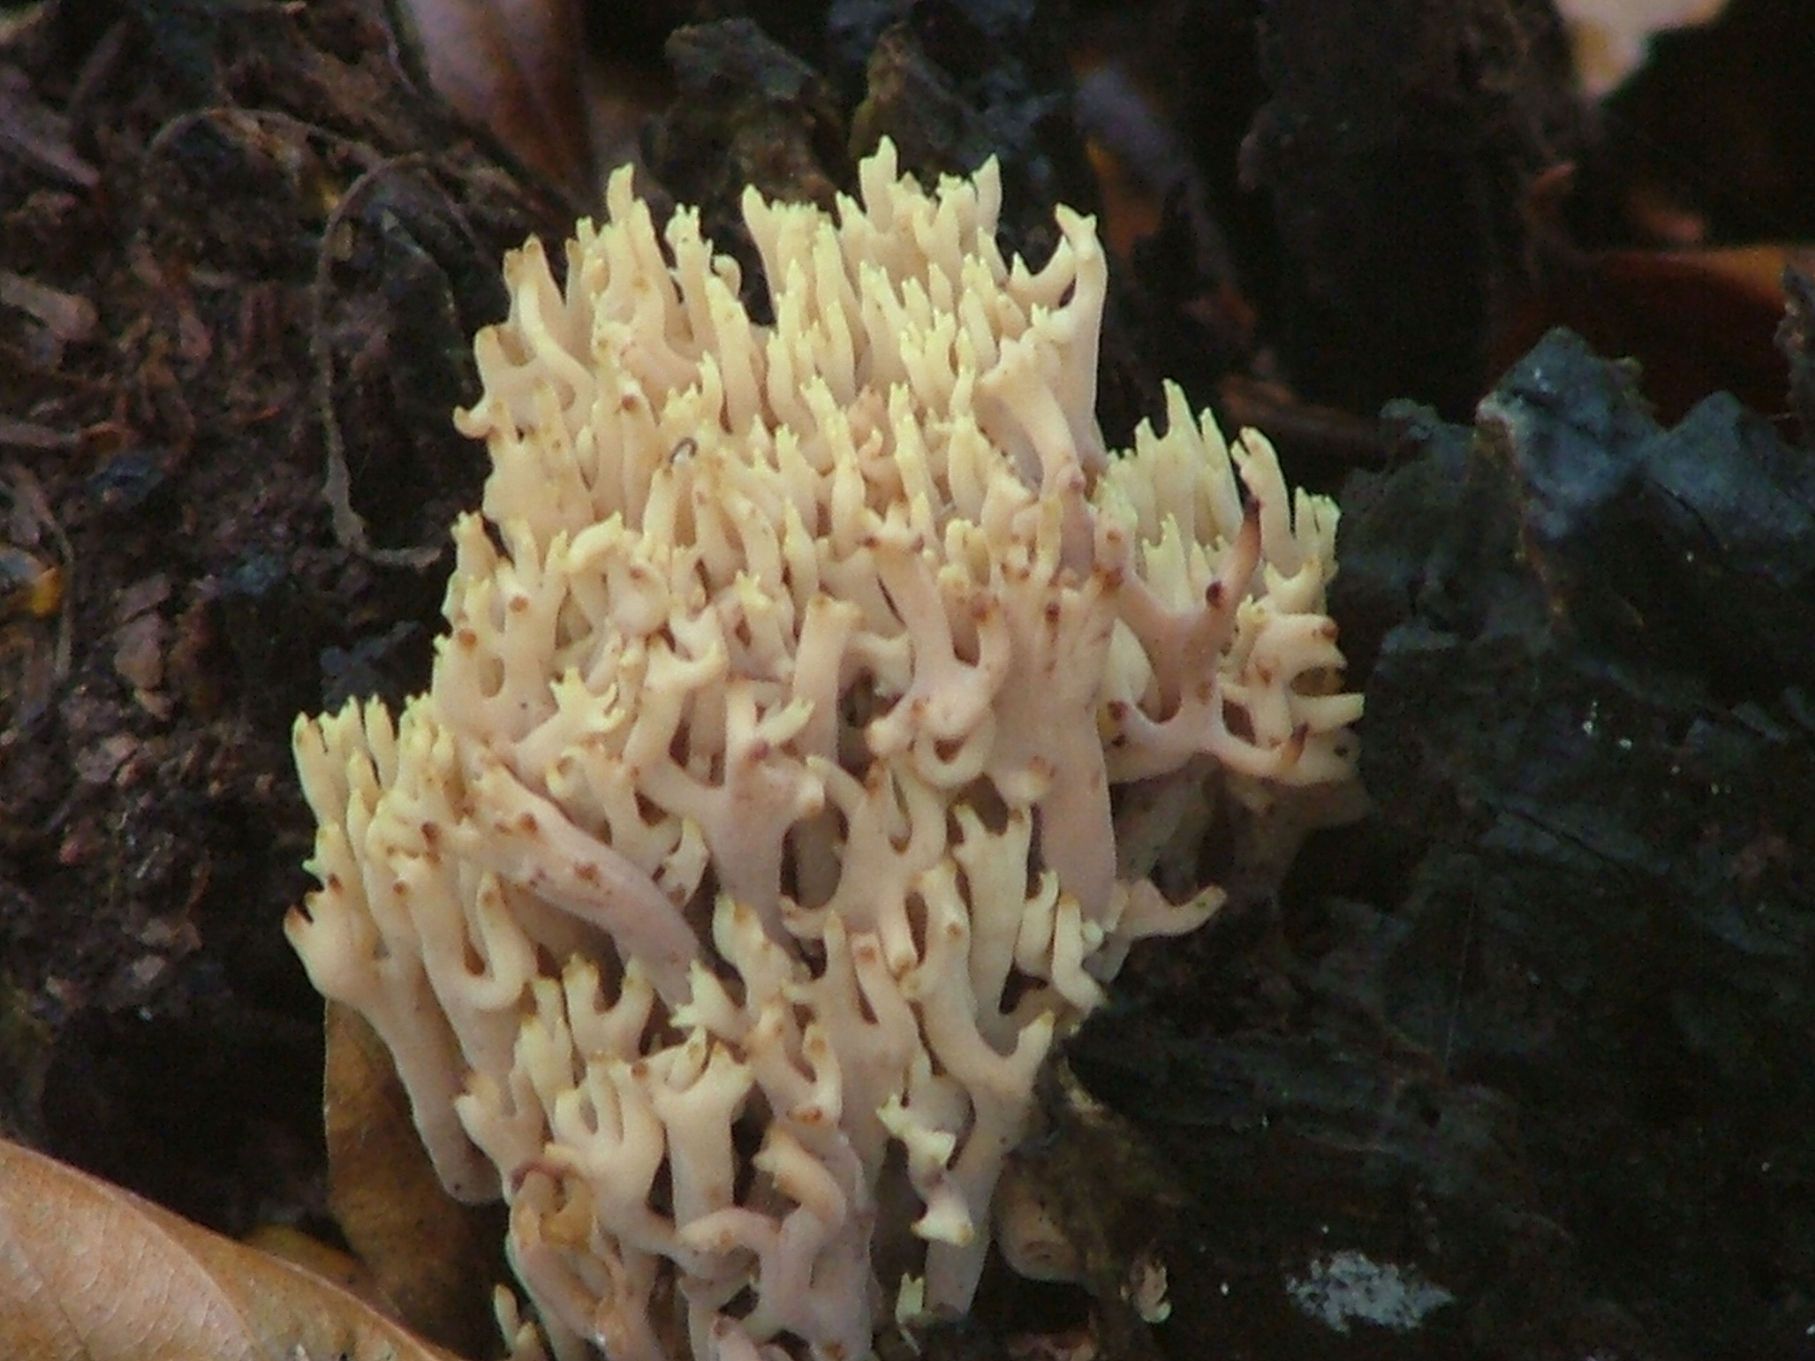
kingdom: Fungi
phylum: Basidiomycota
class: Agaricomycetes
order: Gomphales
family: Gomphaceae
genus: Ramaria
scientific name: Ramaria stricta
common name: rank koralsvamp
